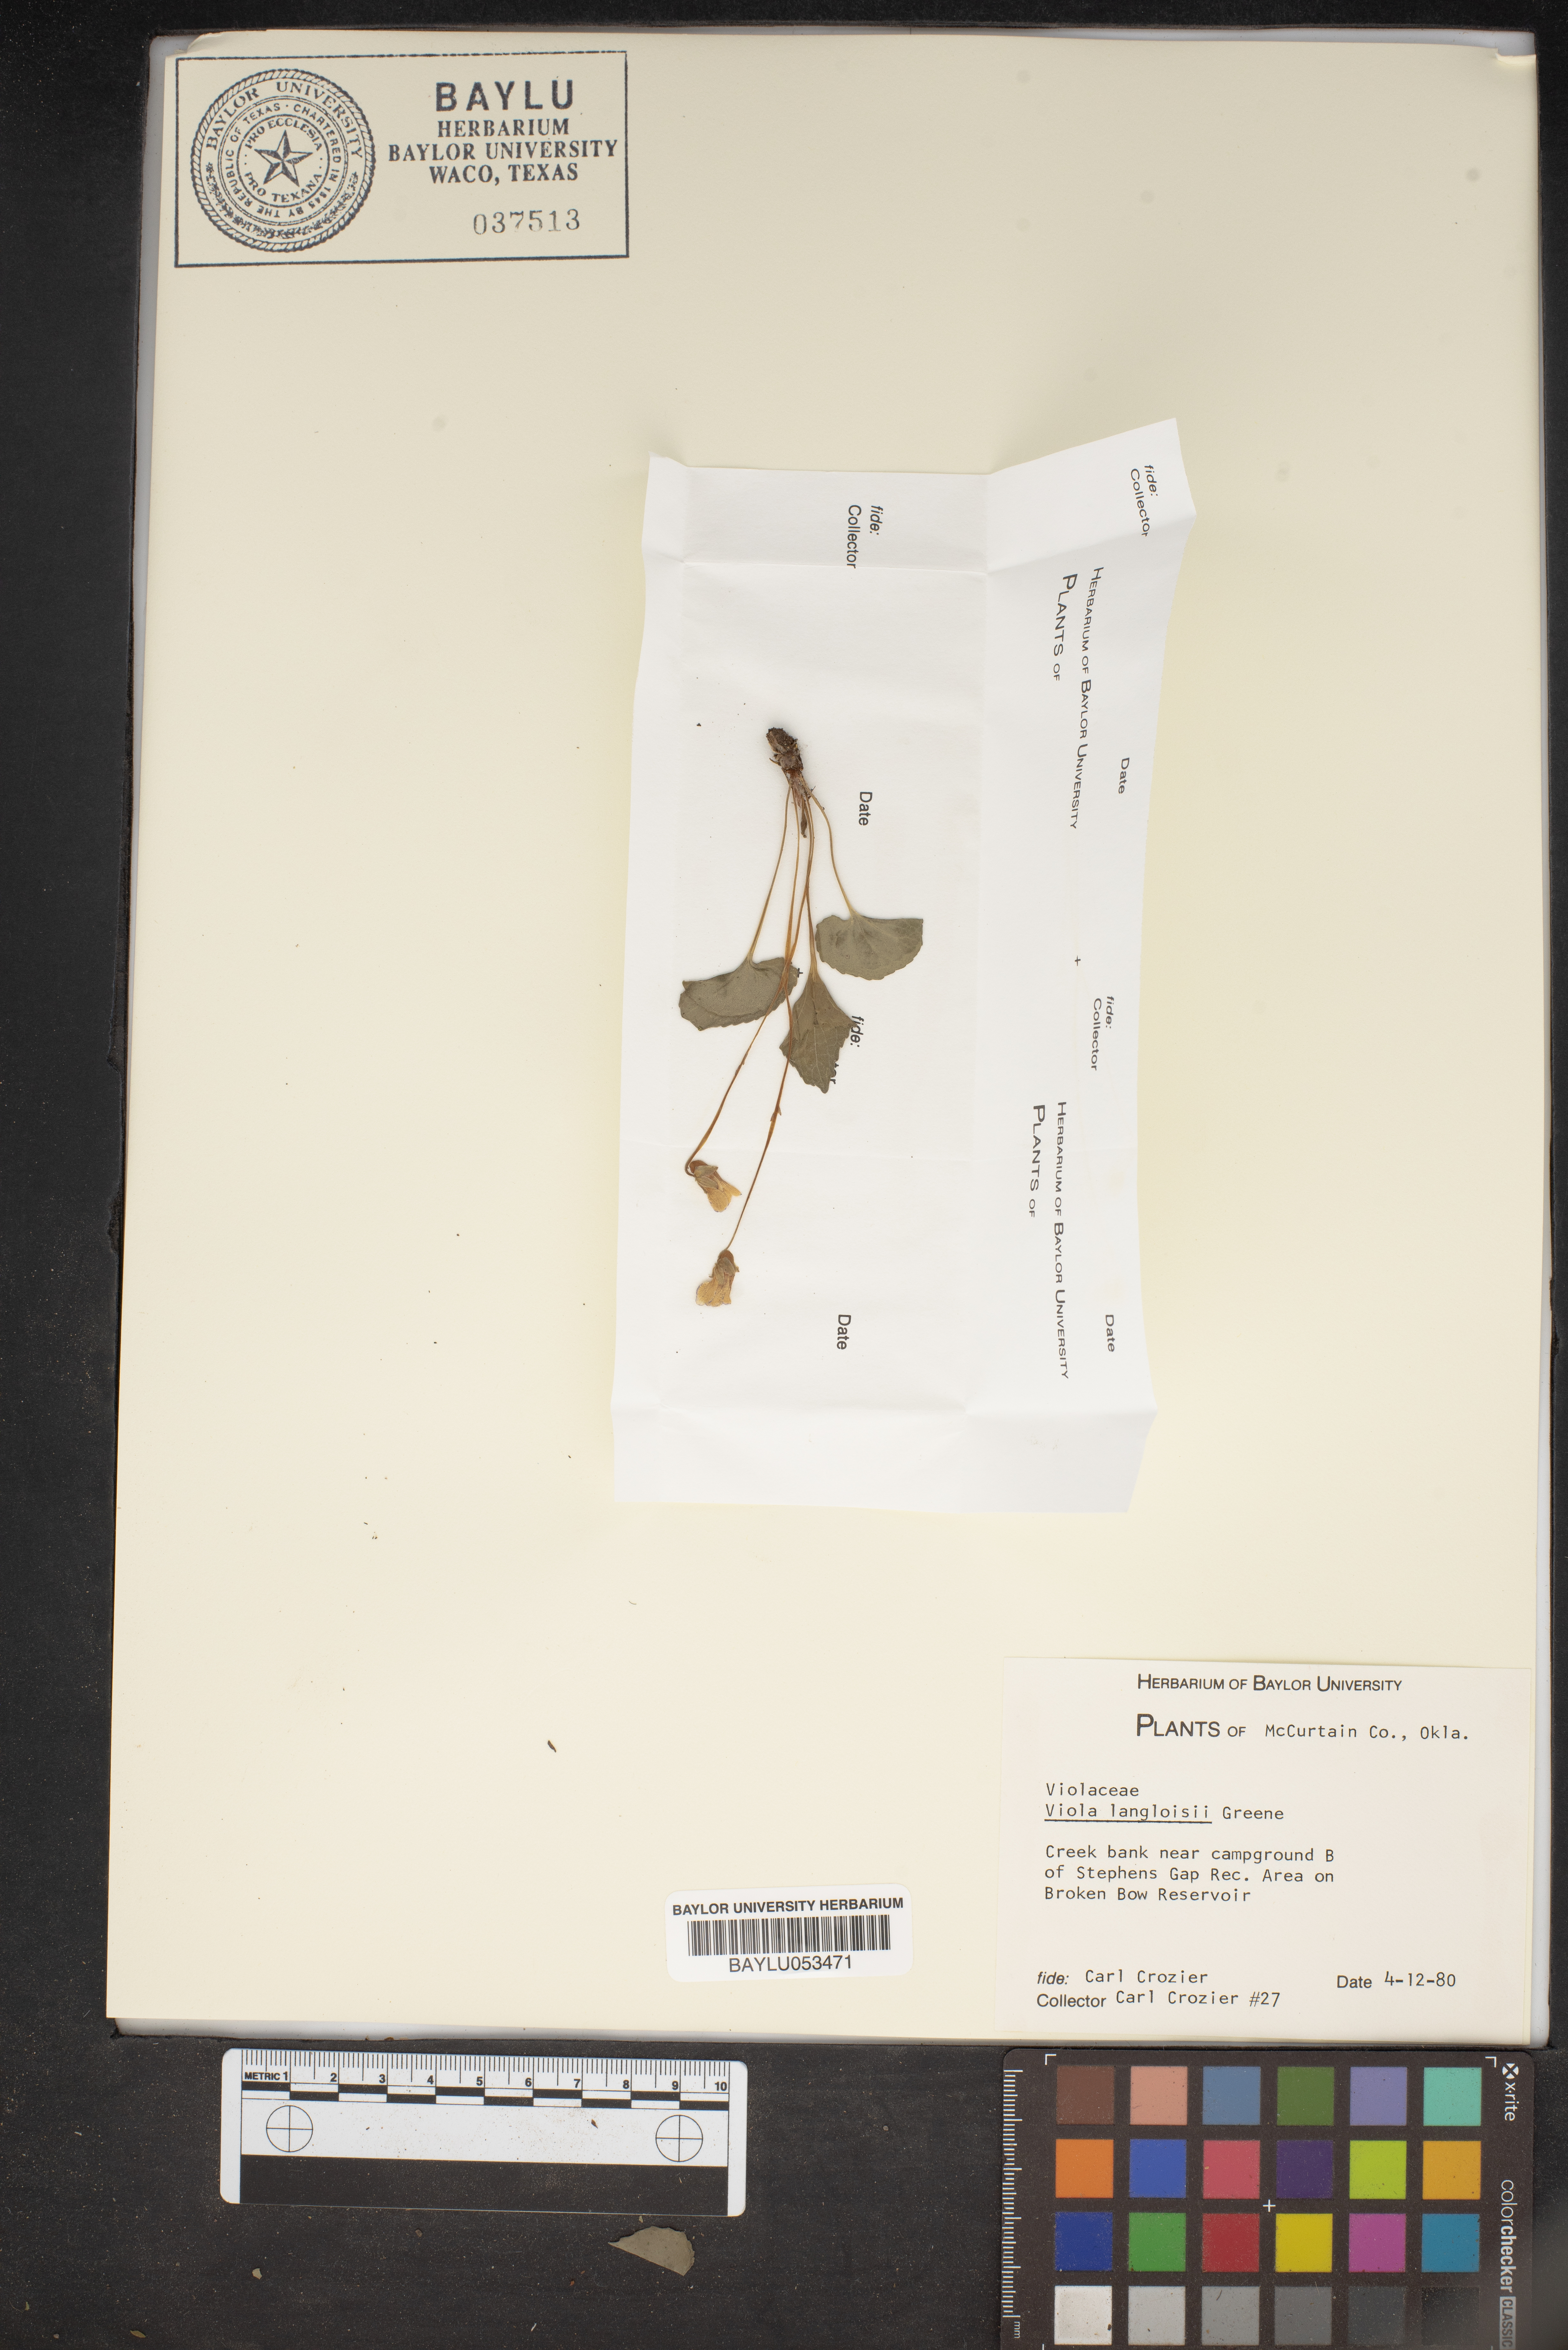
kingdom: Plantae
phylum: Tracheophyta
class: Magnoliopsida
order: Malpighiales
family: Violaceae
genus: Viola
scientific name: Viola langloisii
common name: Langlois' violet
